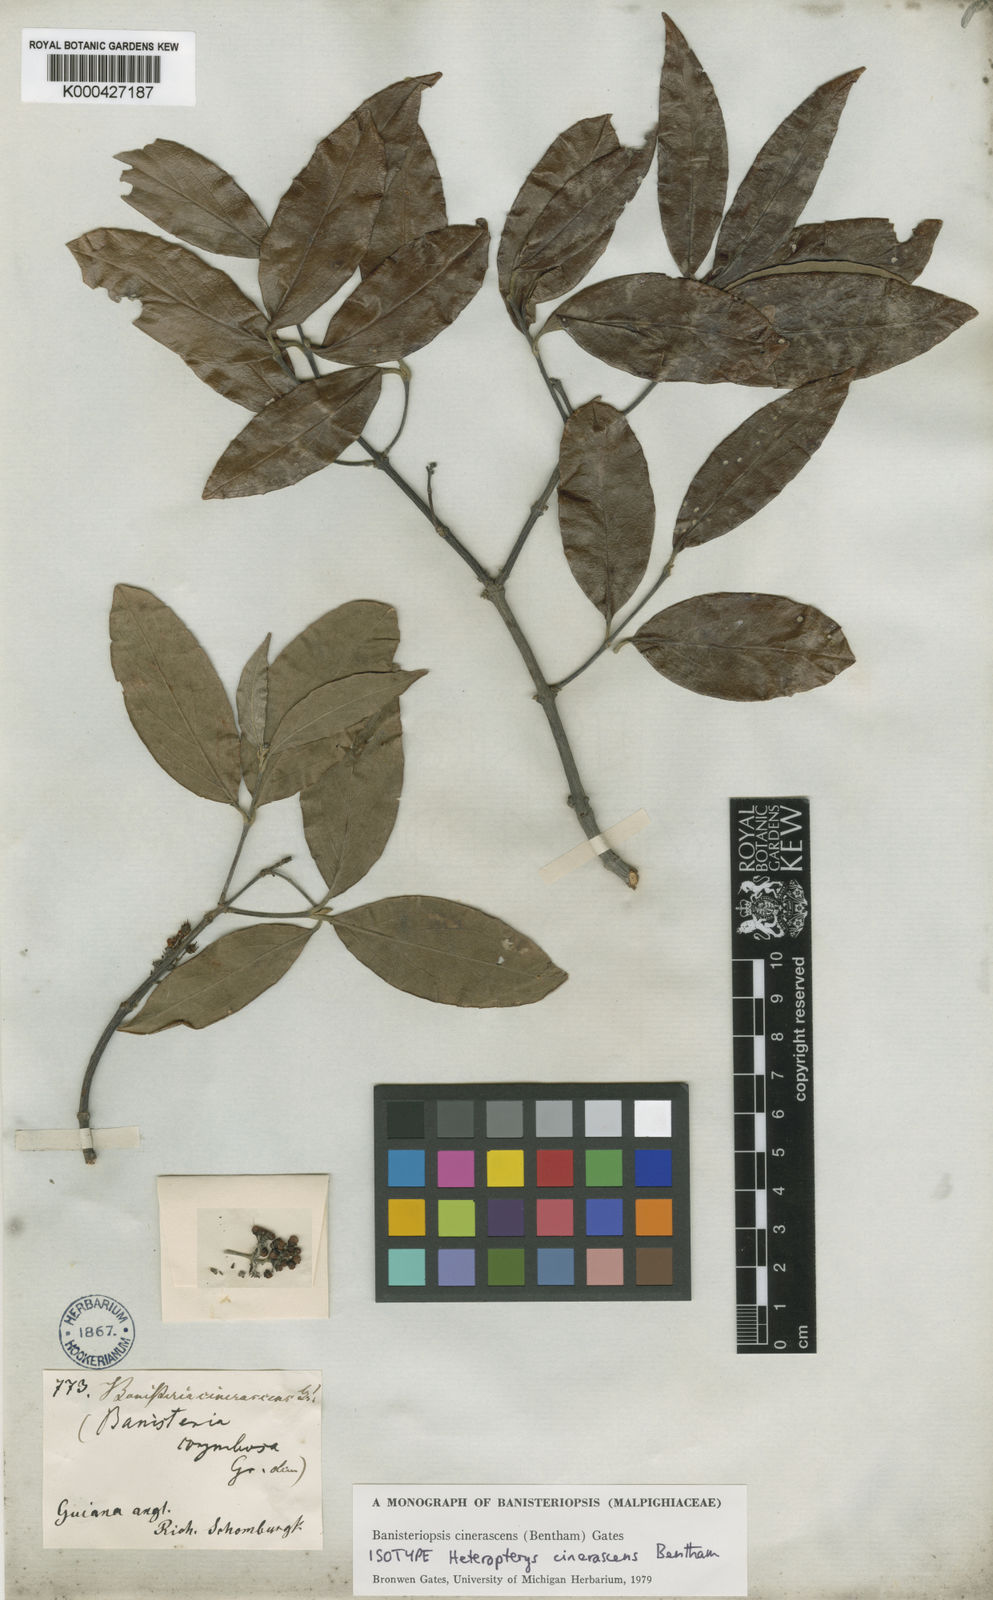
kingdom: Plantae
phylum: Tracheophyta
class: Magnoliopsida
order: Malpighiales
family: Malpighiaceae
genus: Bronwenia
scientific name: Bronwenia cinerascens
